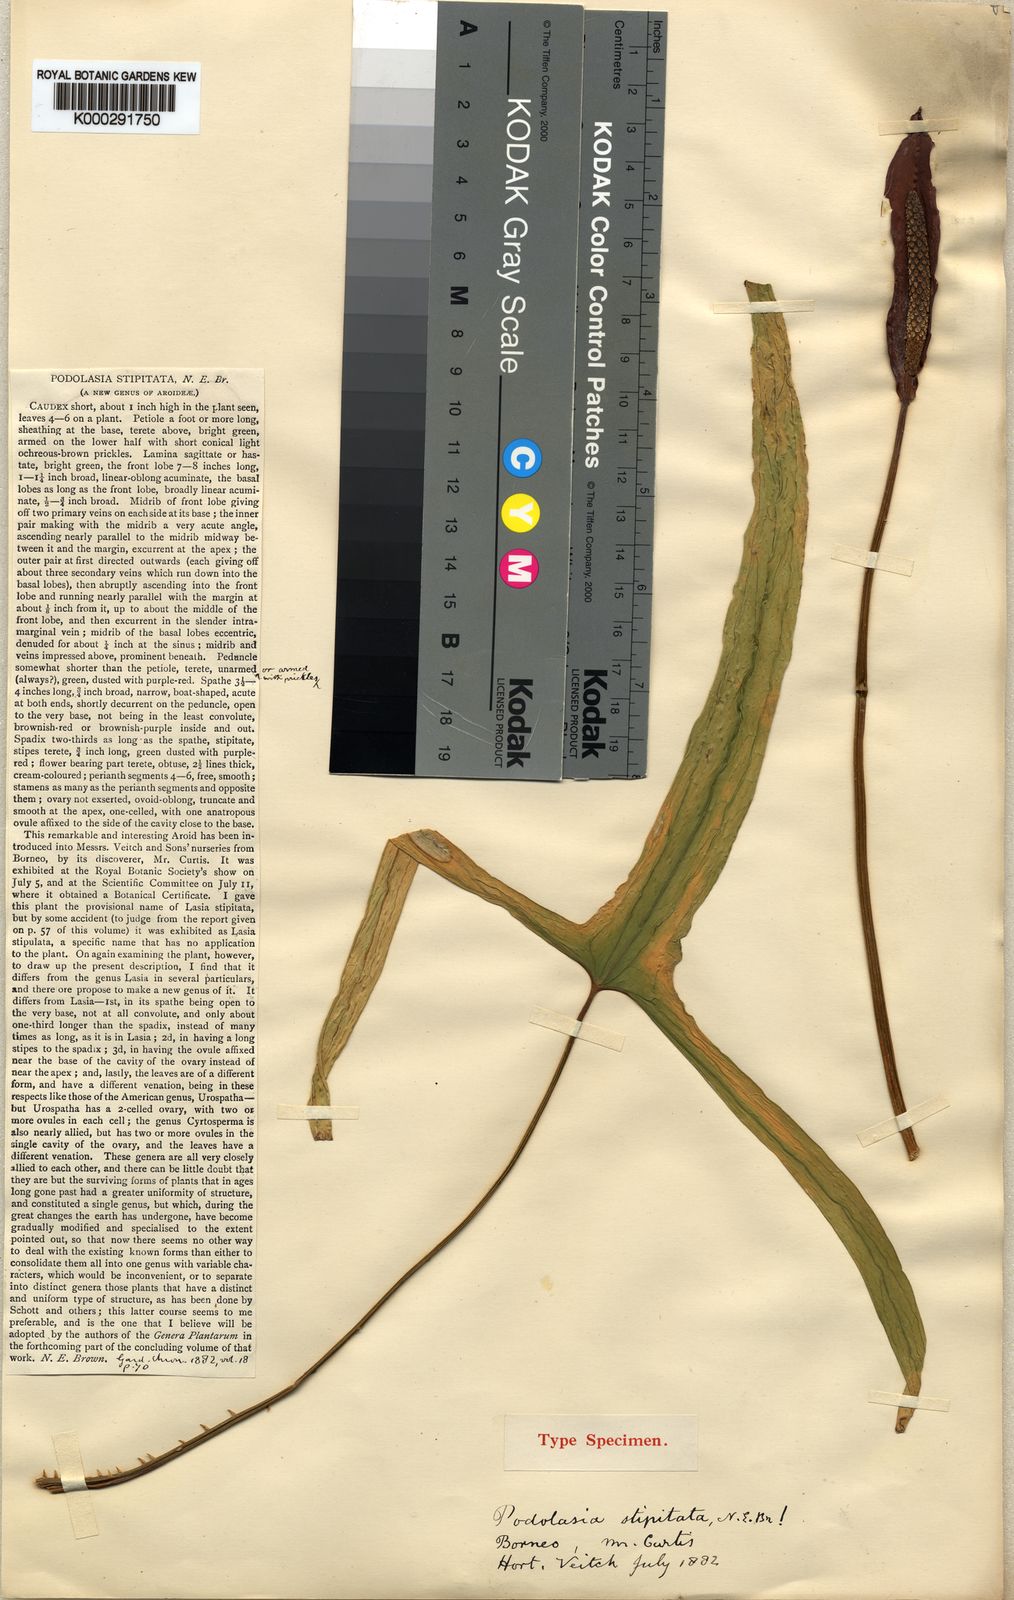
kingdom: Plantae
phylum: Tracheophyta
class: Liliopsida
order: Alismatales
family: Araceae
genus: Podolasia
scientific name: Podolasia stipitata
